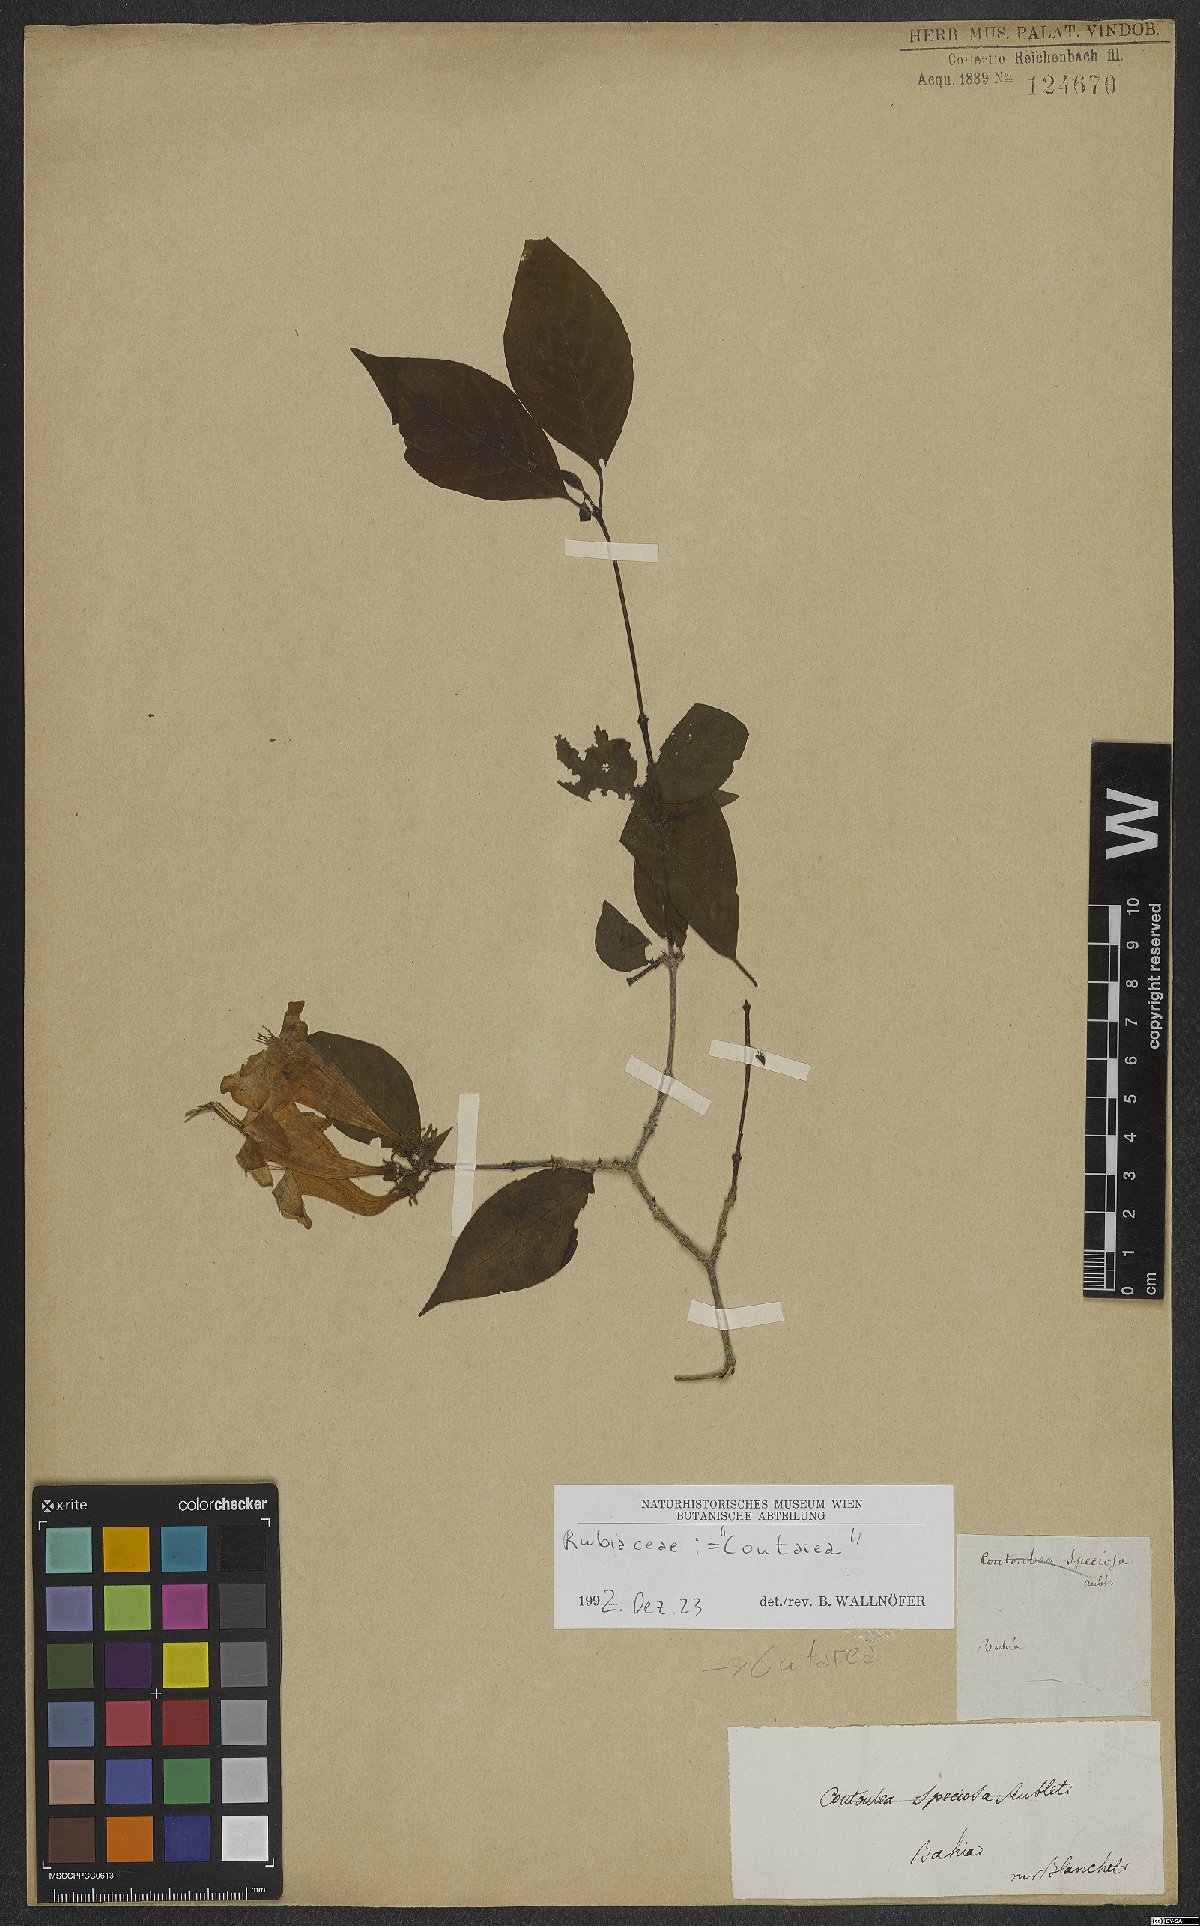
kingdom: Plantae
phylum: Tracheophyta
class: Magnoliopsida
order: Gentianales
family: Rubiaceae
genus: Coutarea
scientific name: Coutarea hexandra
